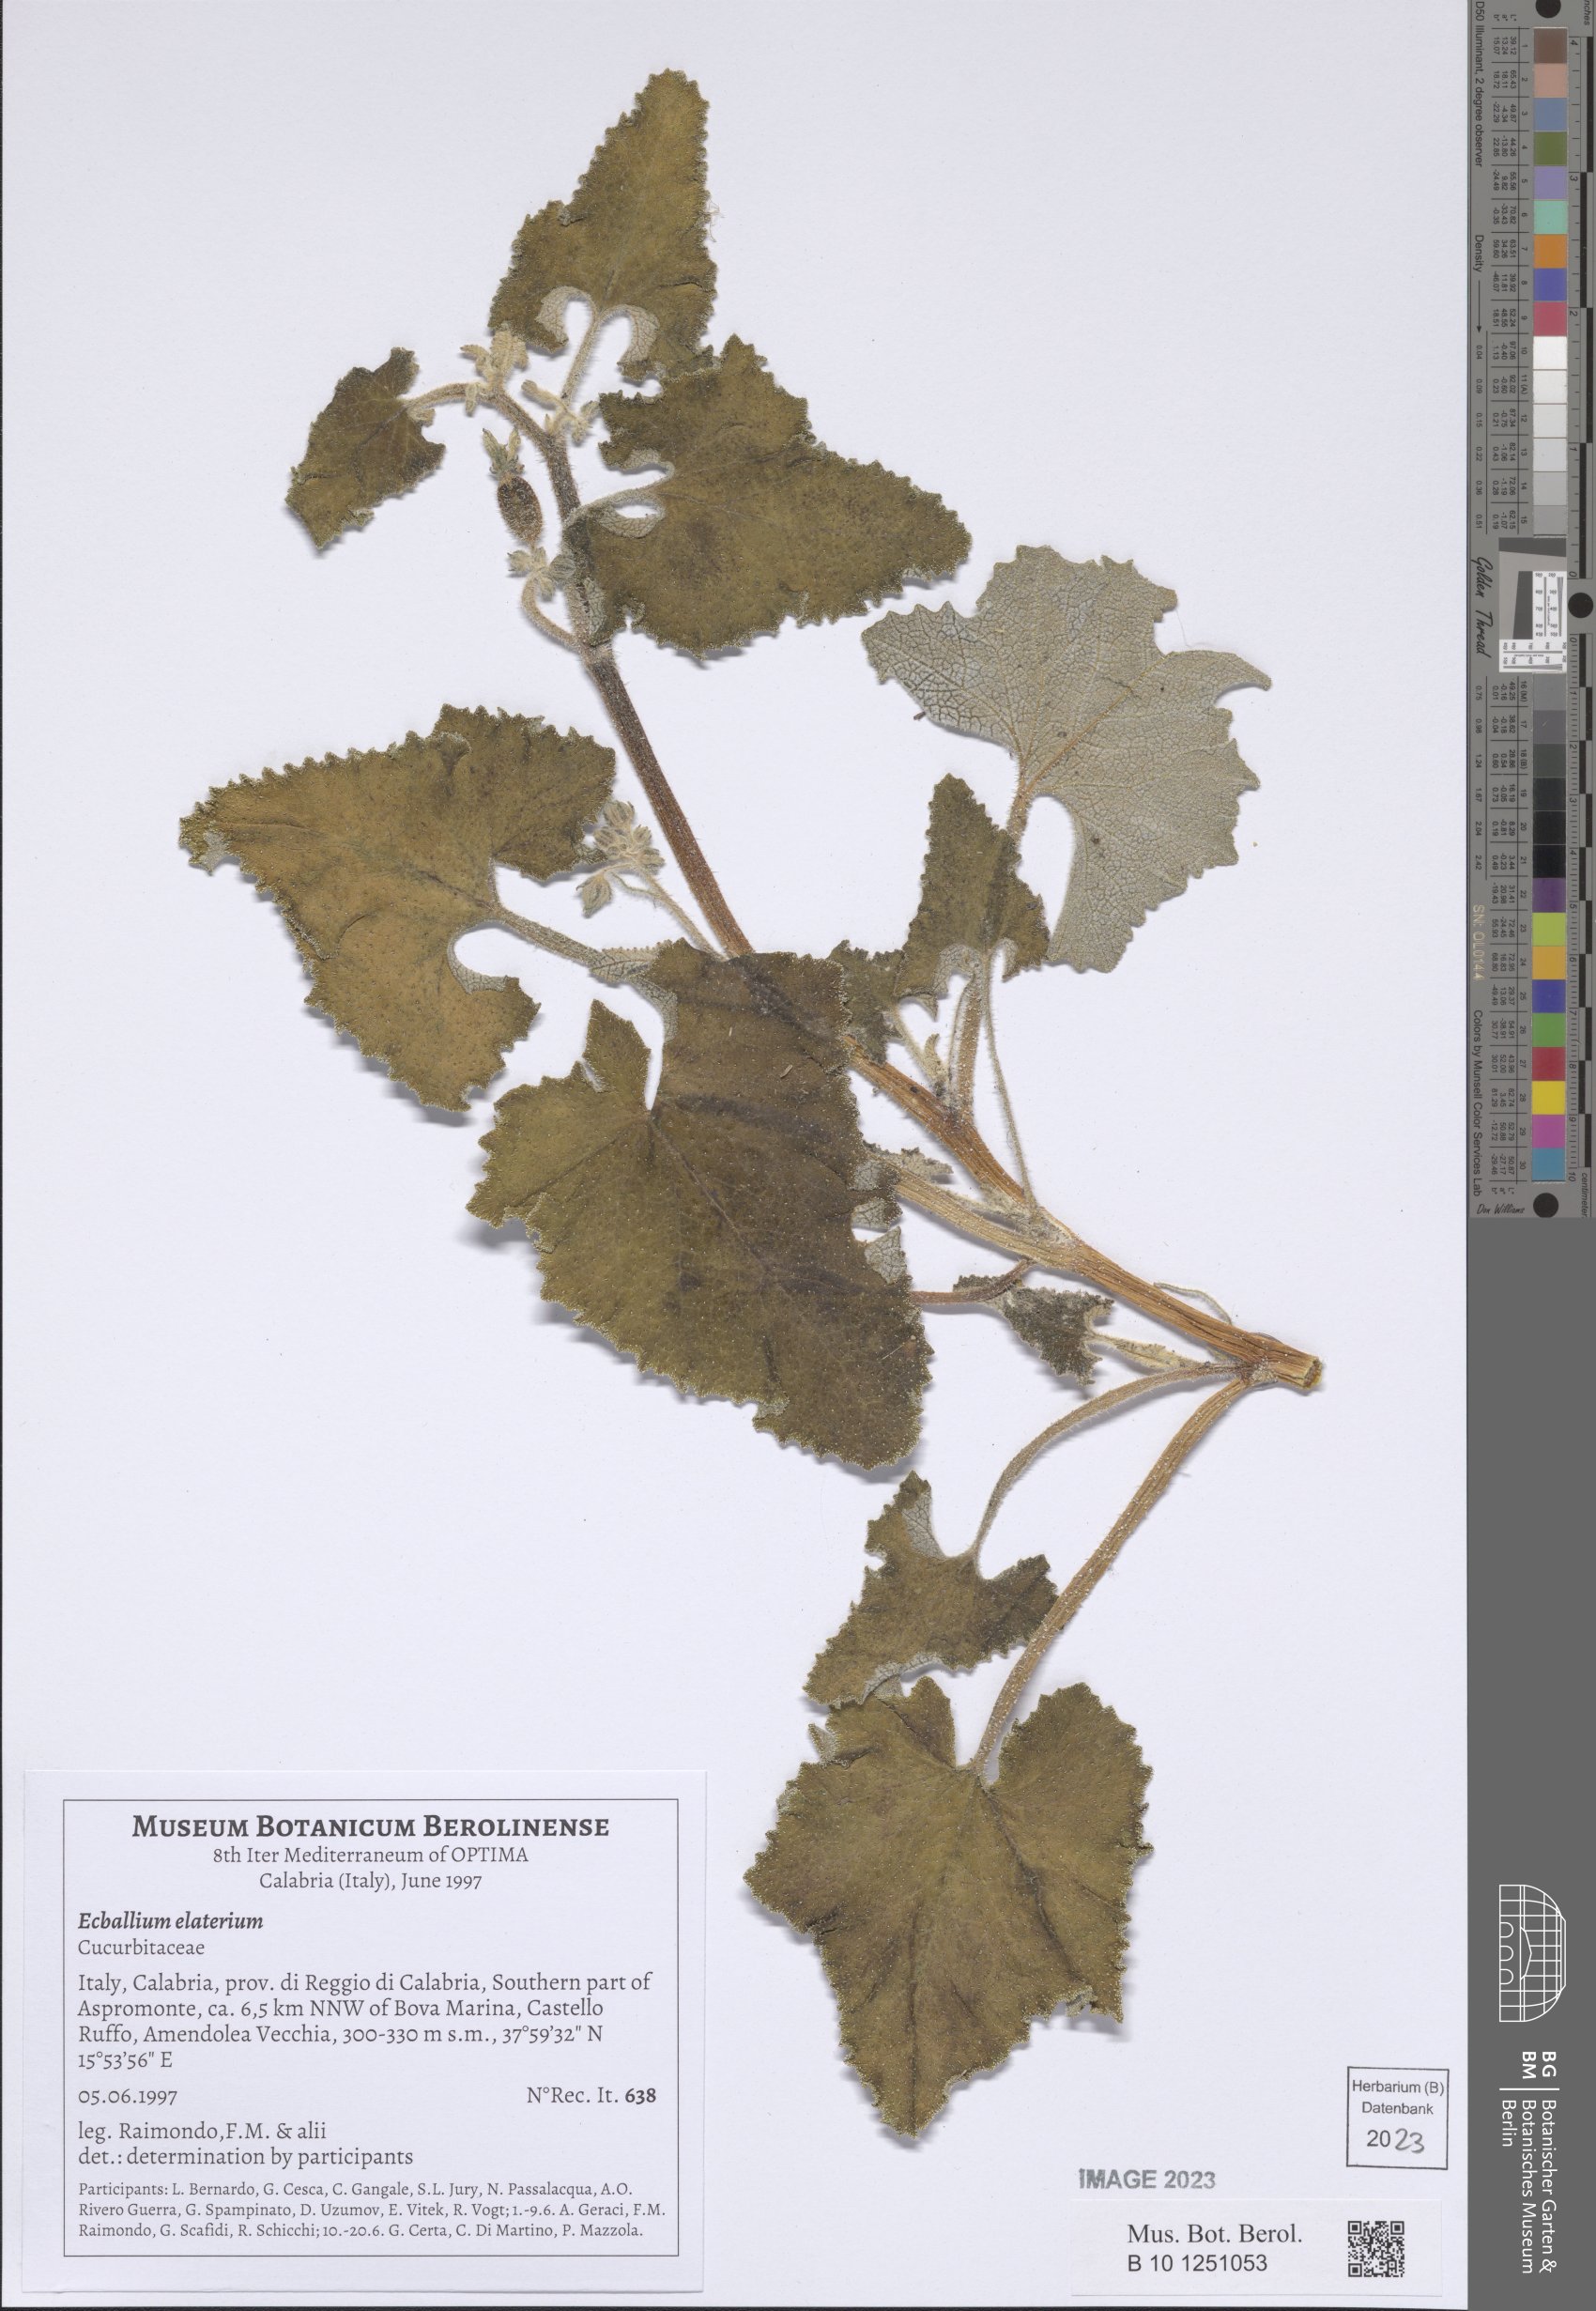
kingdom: Plantae
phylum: Tracheophyta
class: Magnoliopsida
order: Cucurbitales
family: Cucurbitaceae
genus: Ecballium
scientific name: Ecballium elaterium
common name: Squirting cucumber
